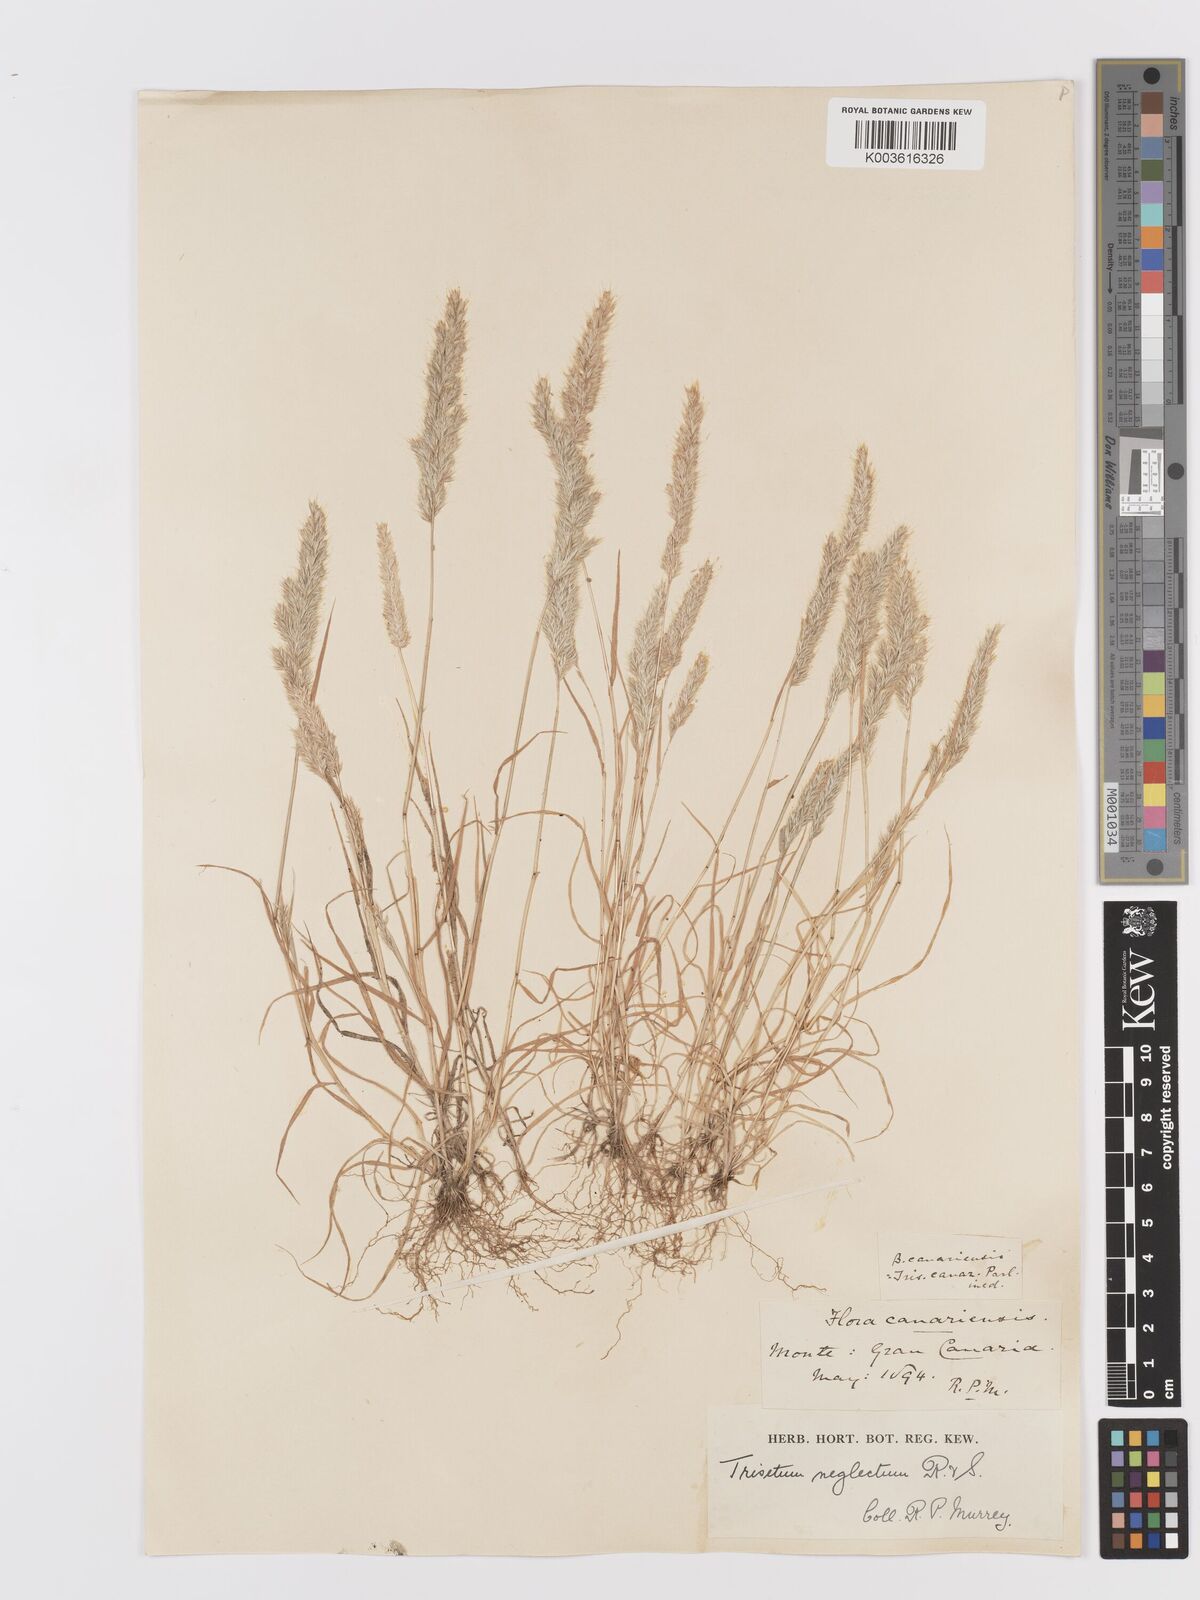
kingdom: Plantae
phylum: Tracheophyta
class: Liliopsida
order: Poales
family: Poaceae
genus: Trisetaria
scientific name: Trisetaria panicea
